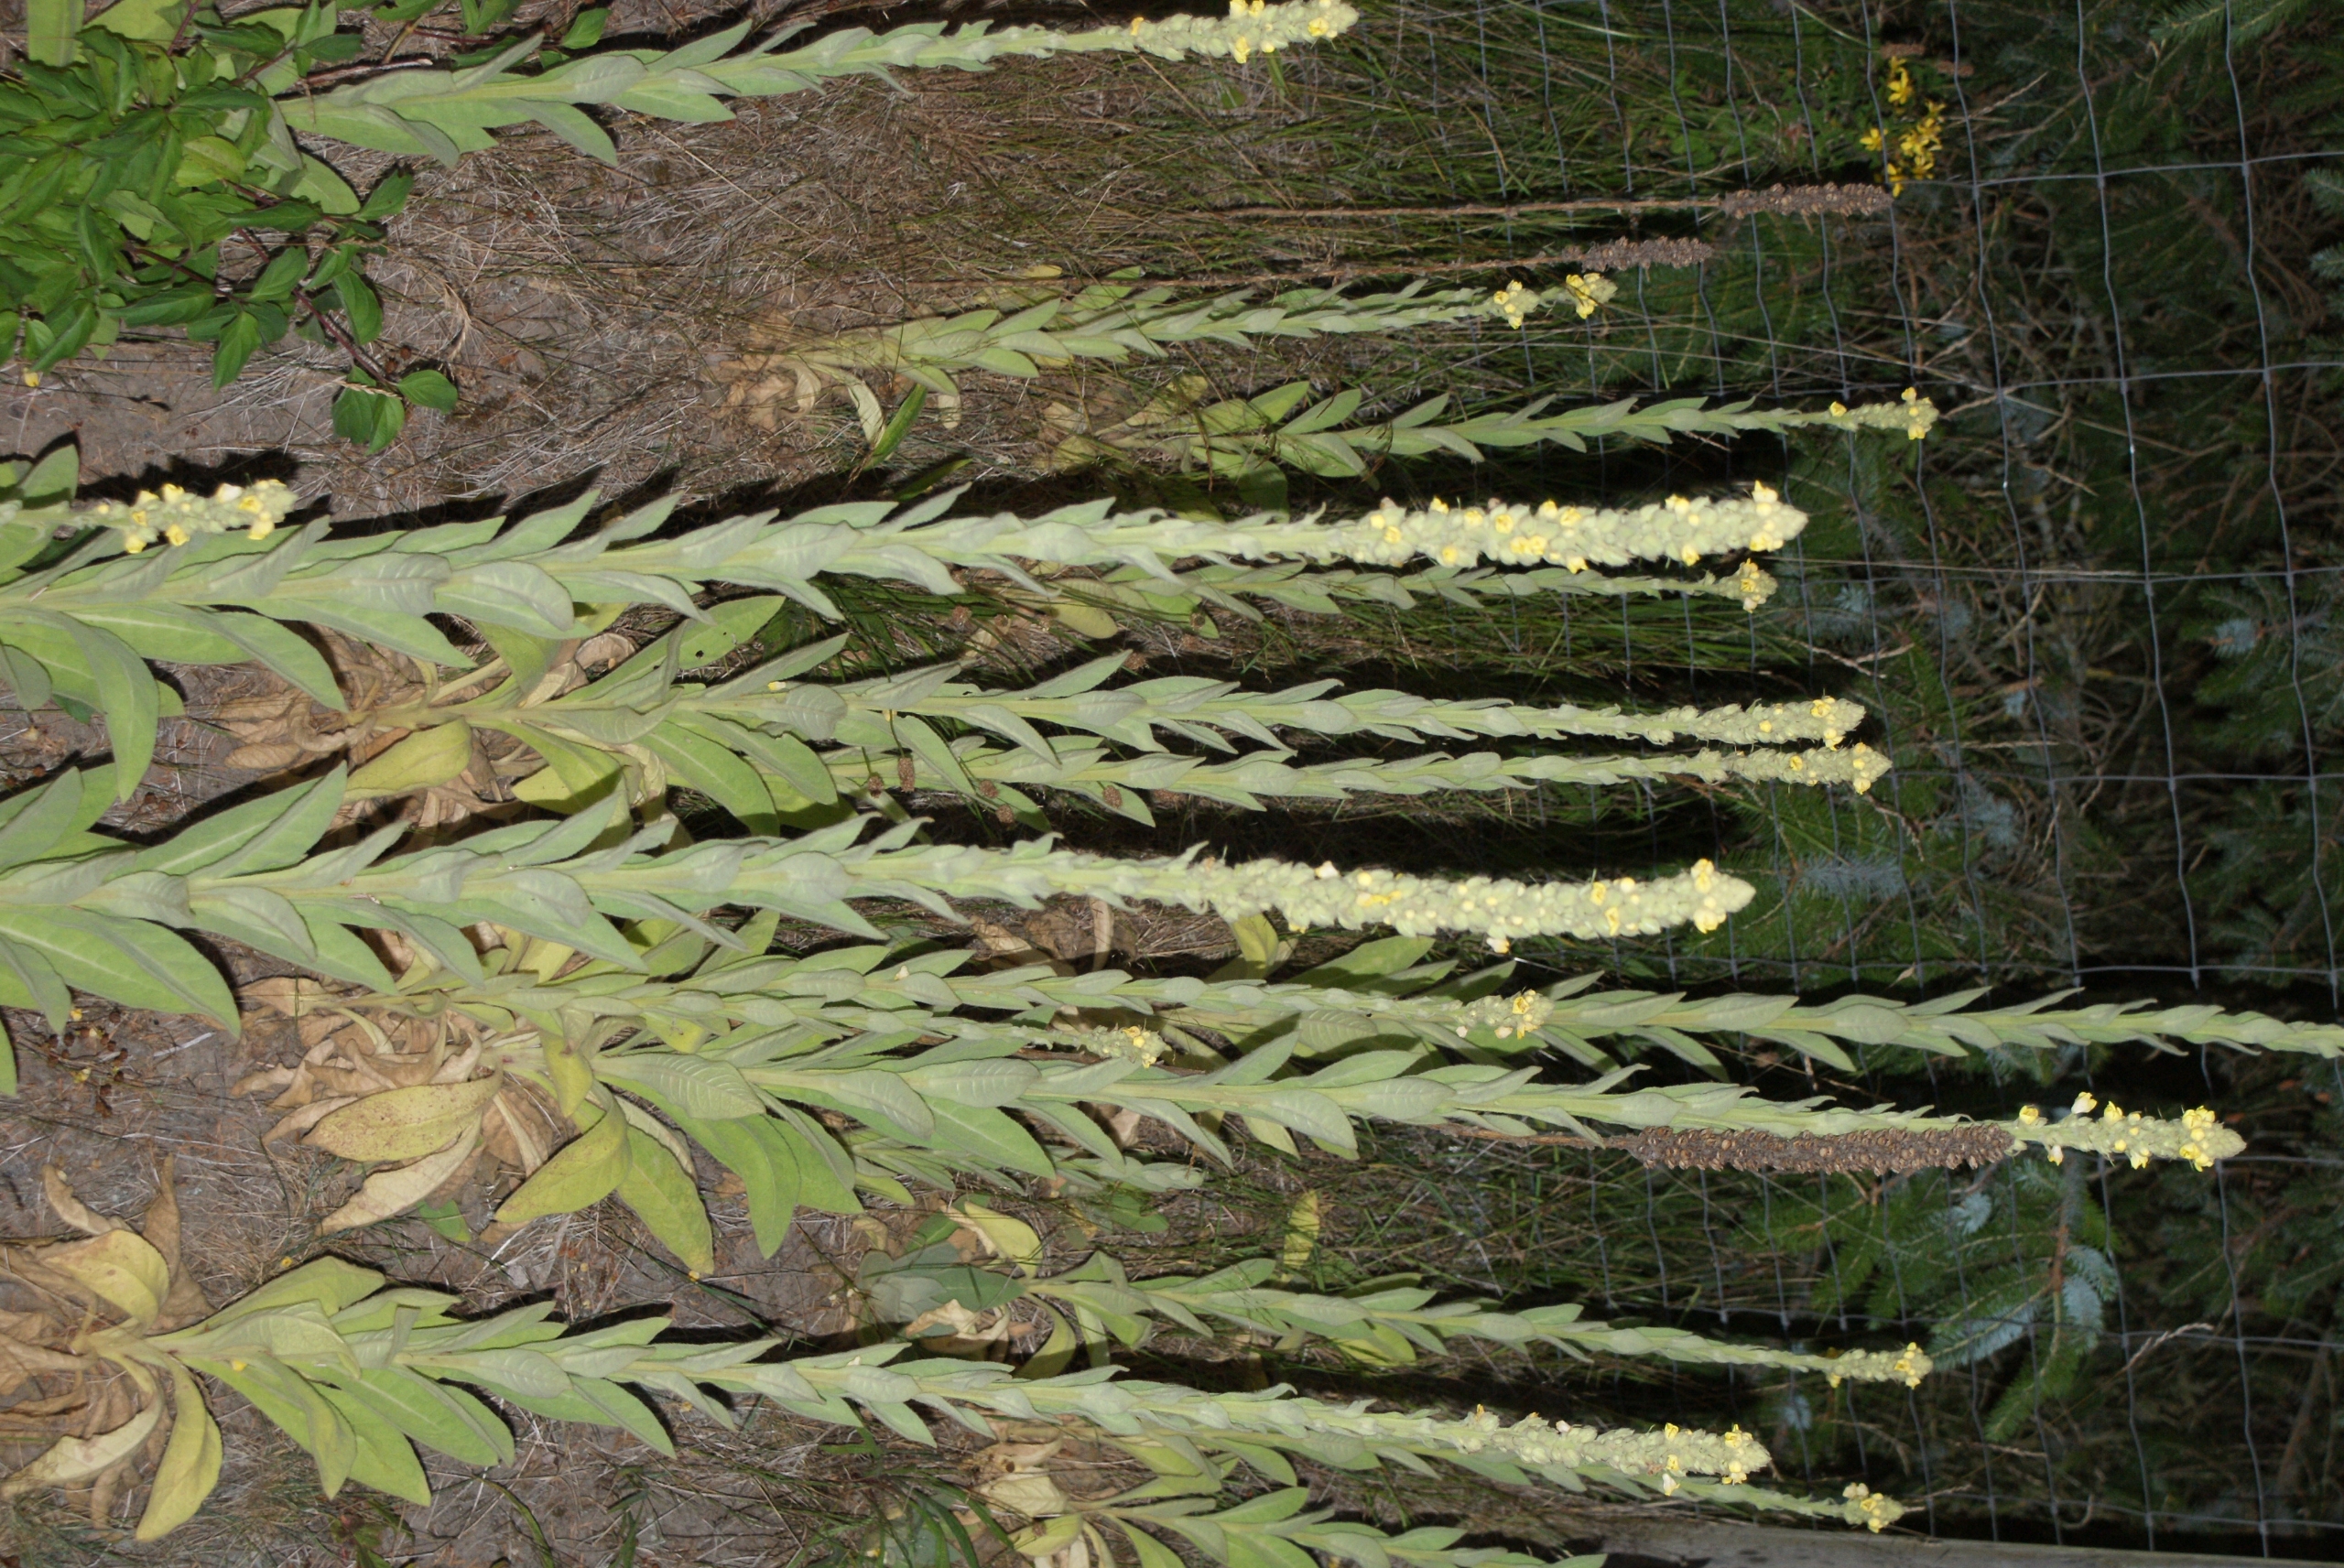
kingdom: Plantae
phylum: Tracheophyta
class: Magnoliopsida
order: Lamiales
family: Scrophulariaceae
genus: Verbascum
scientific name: Verbascum thapsus
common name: Filtbladet kongelys
